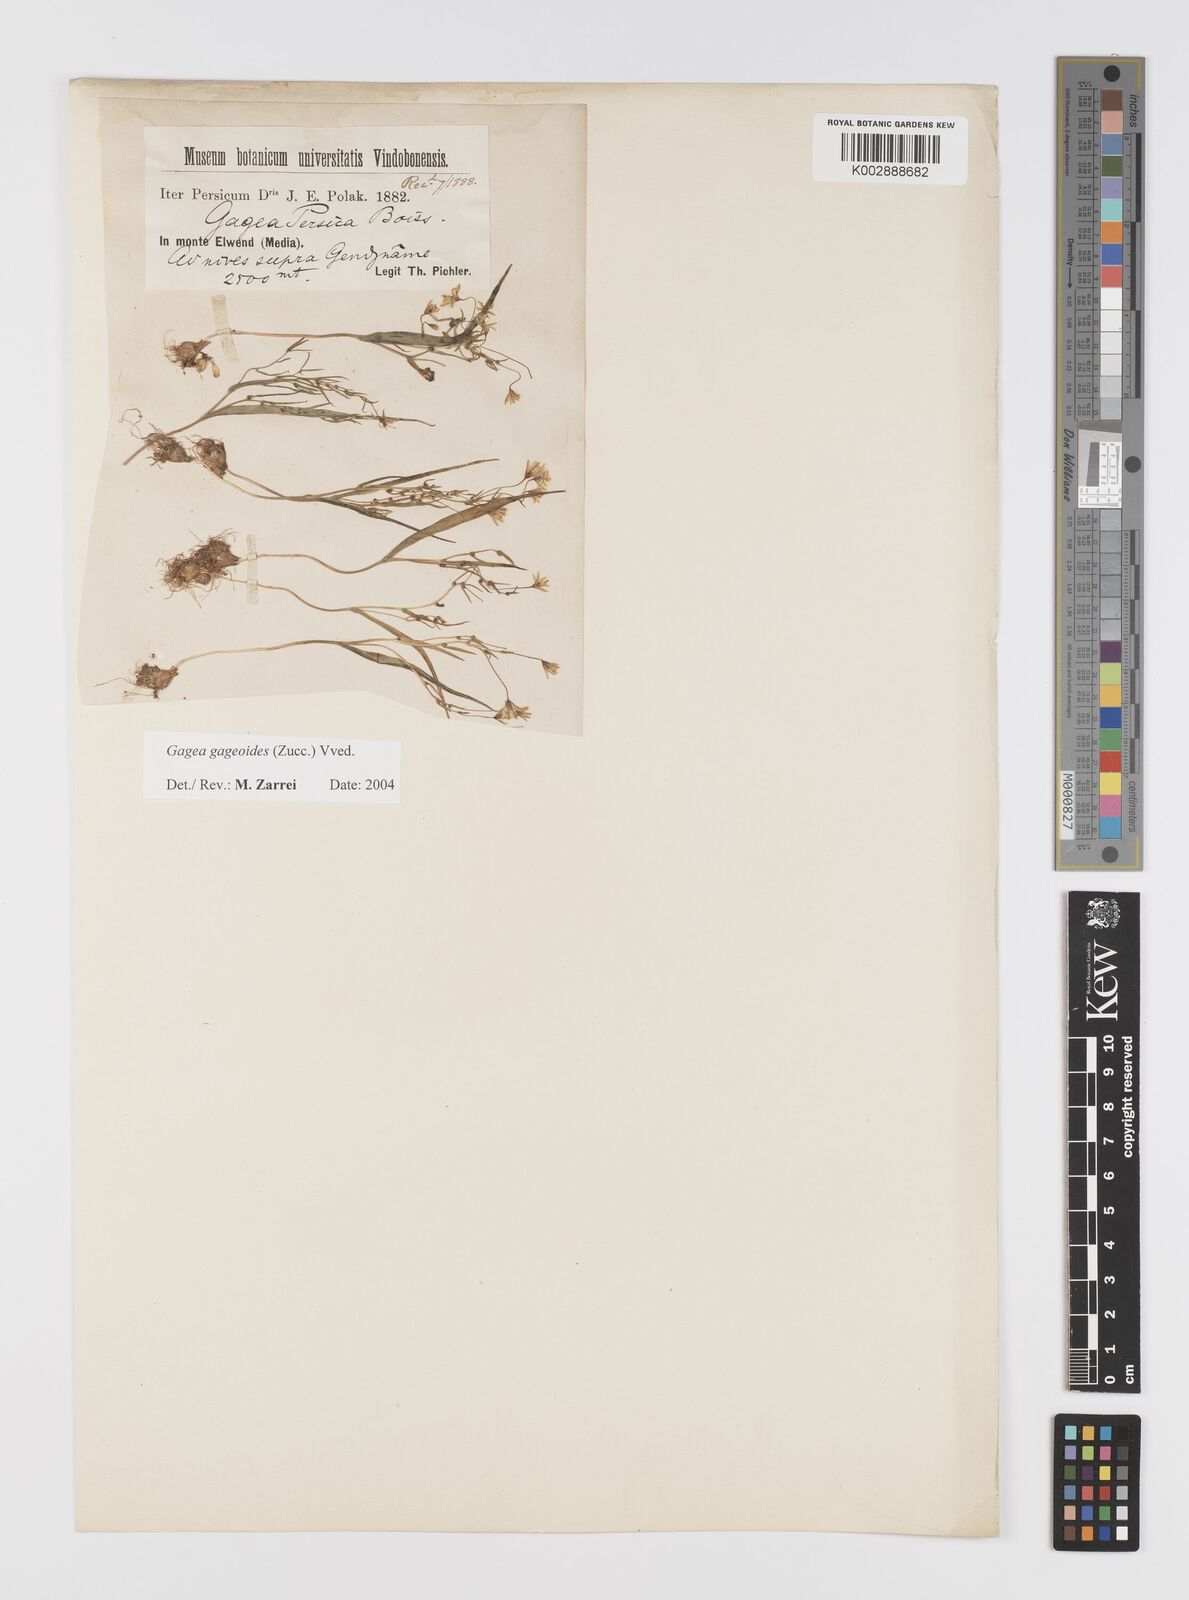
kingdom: Plantae
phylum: Tracheophyta
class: Liliopsida
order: Liliales
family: Liliaceae
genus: Gagea
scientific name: Gagea gageoides
